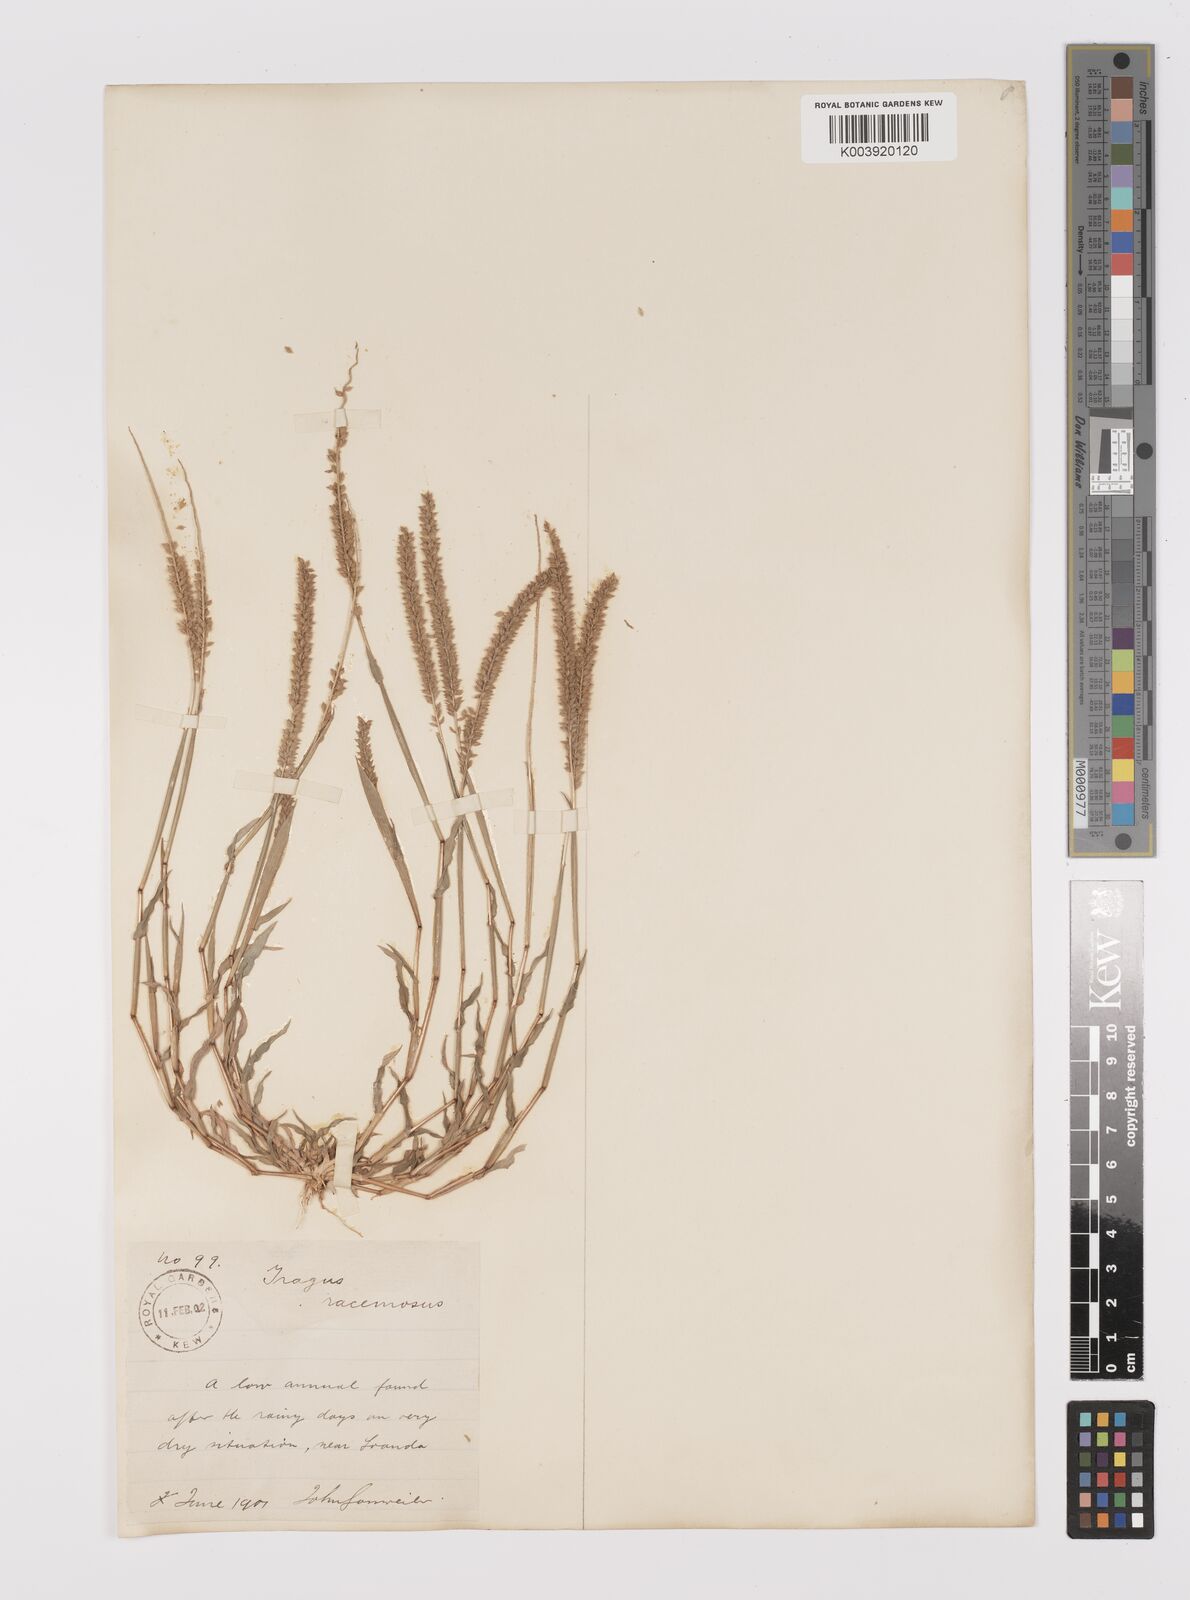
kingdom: Plantae
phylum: Tracheophyta
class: Liliopsida
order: Poales
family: Poaceae
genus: Tragus
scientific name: Tragus berteronianus
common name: African bur-grass
